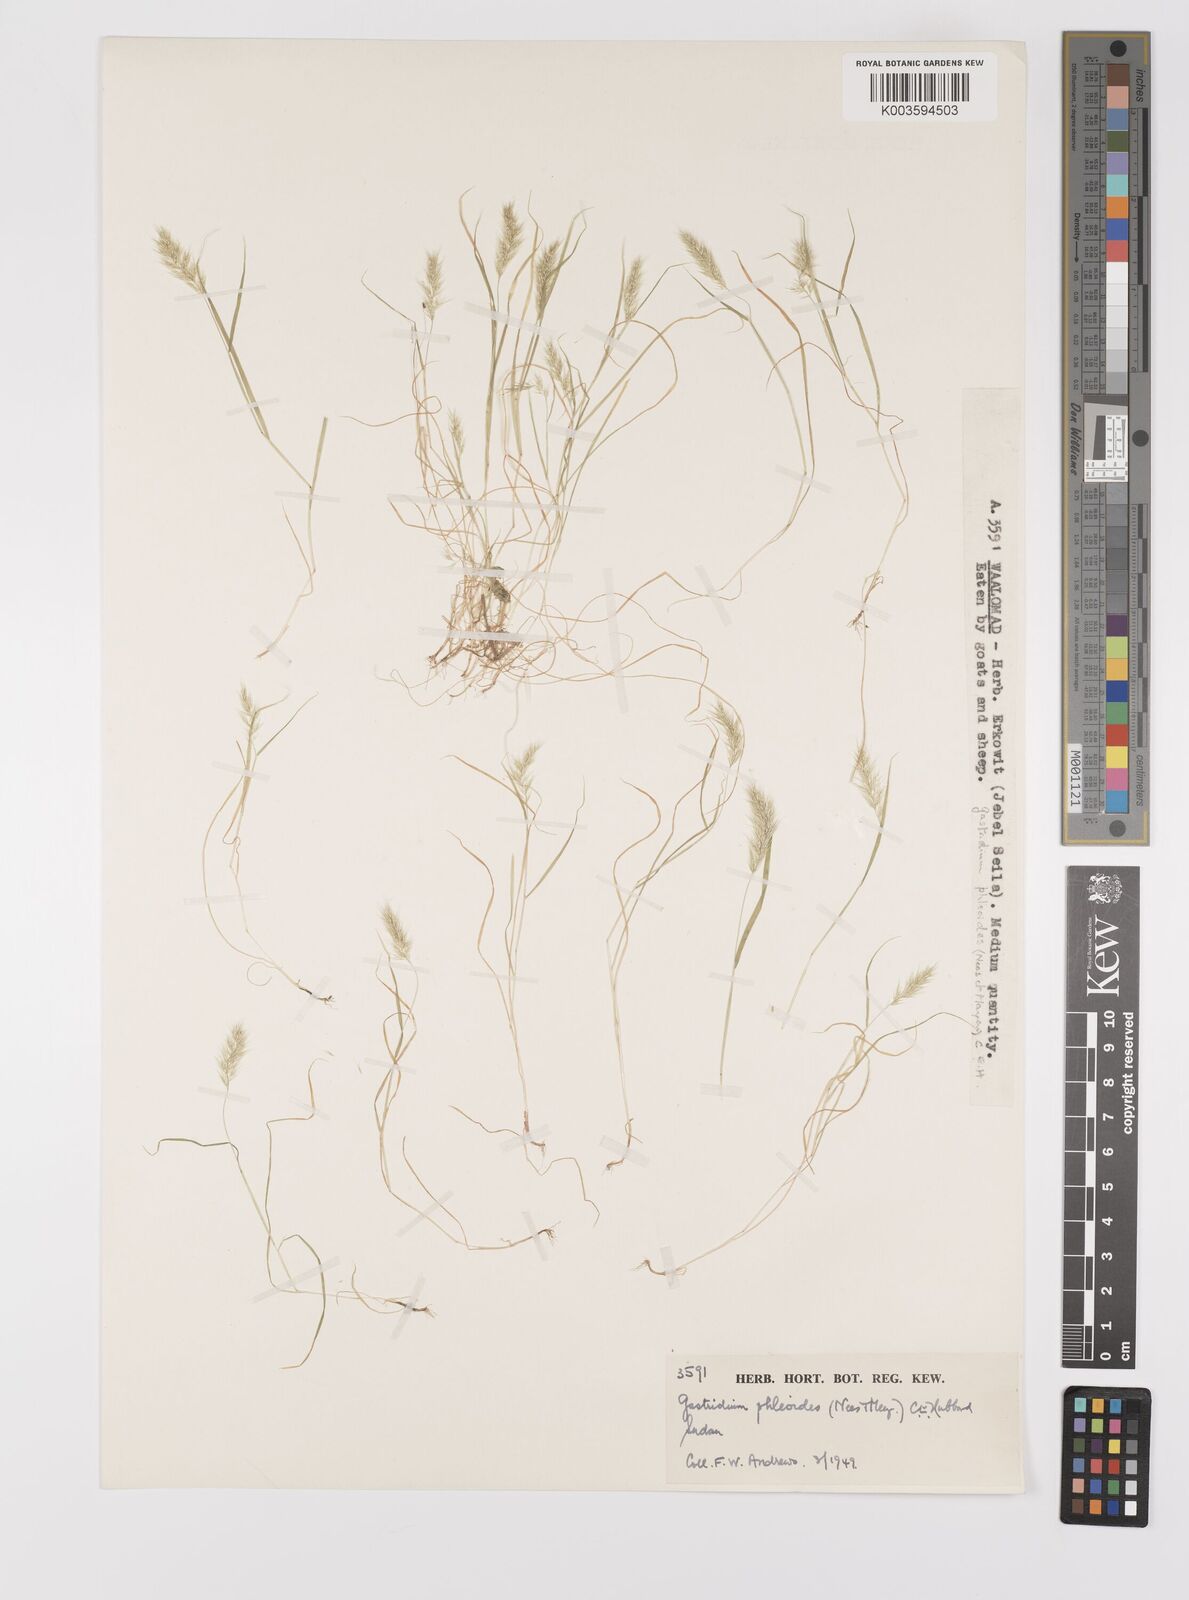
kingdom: Plantae
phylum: Tracheophyta
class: Liliopsida
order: Poales
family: Poaceae
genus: Gastridium
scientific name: Gastridium phleoides
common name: Nit grass
